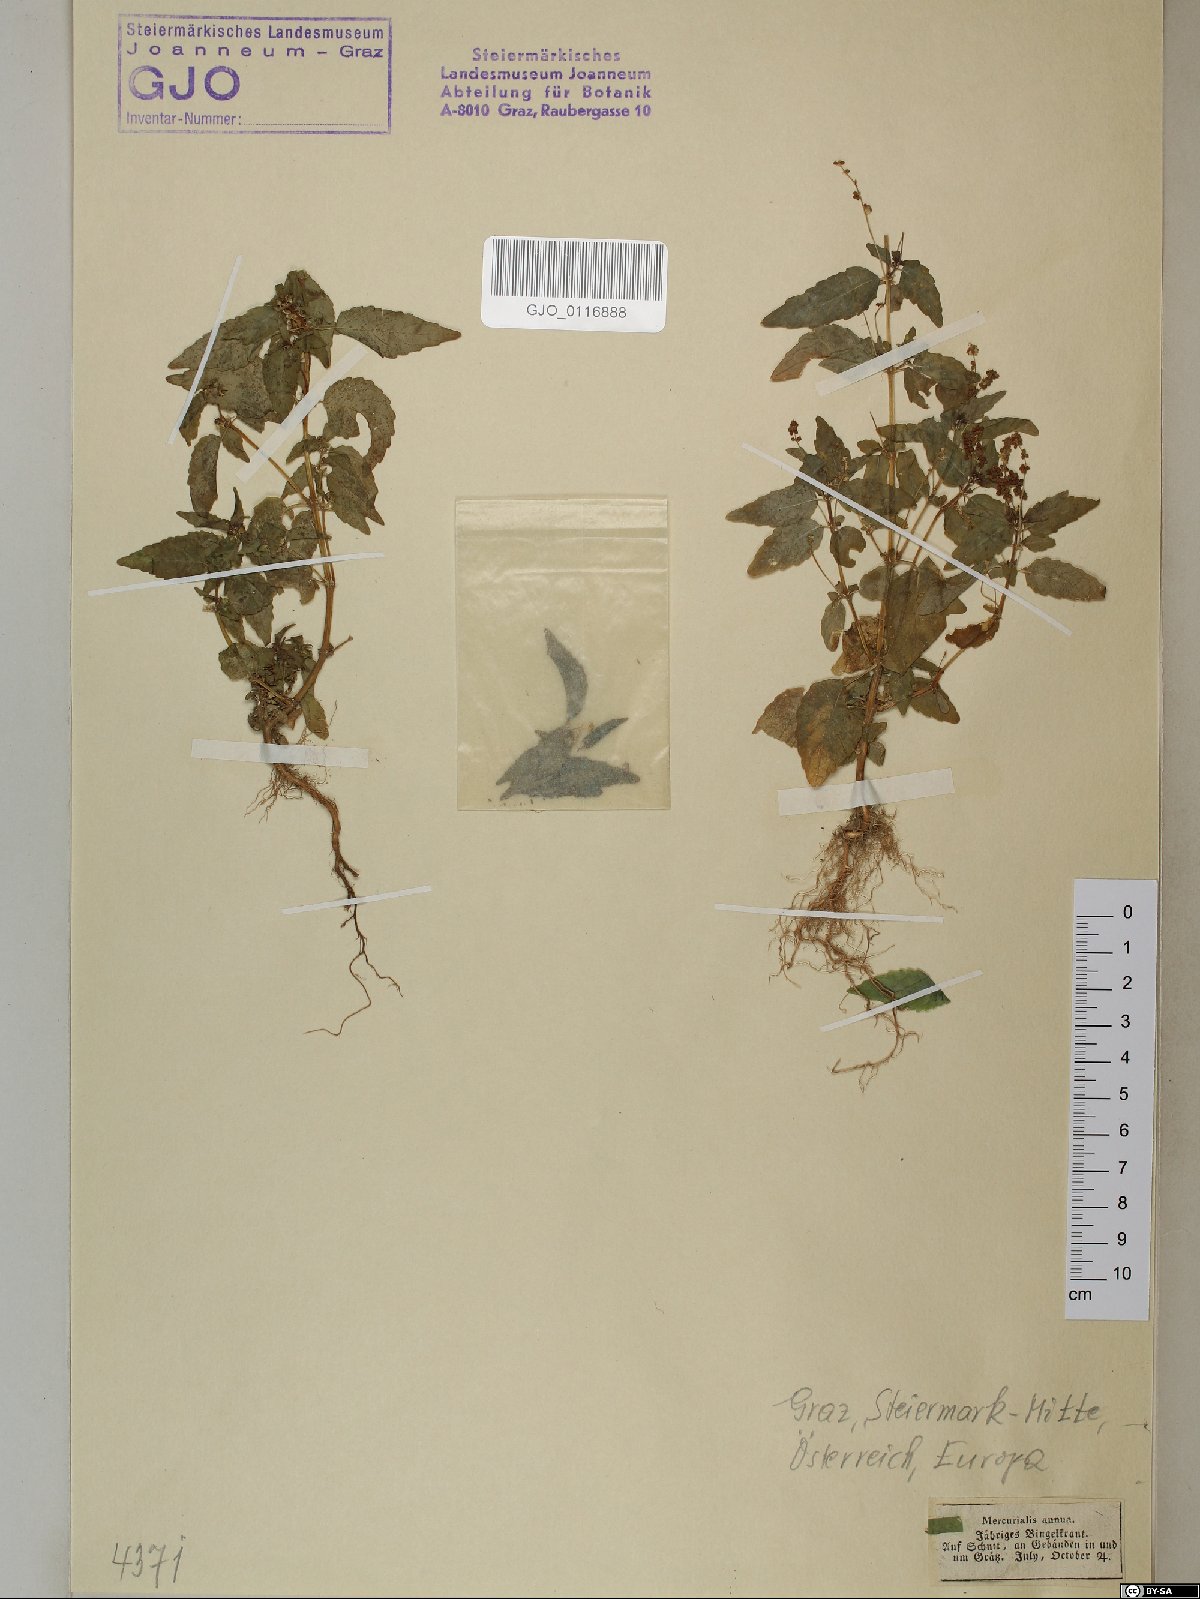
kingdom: Plantae
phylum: Tracheophyta
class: Magnoliopsida
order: Malpighiales
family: Euphorbiaceae
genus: Mercurialis
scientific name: Mercurialis annua
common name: Annual mercury
